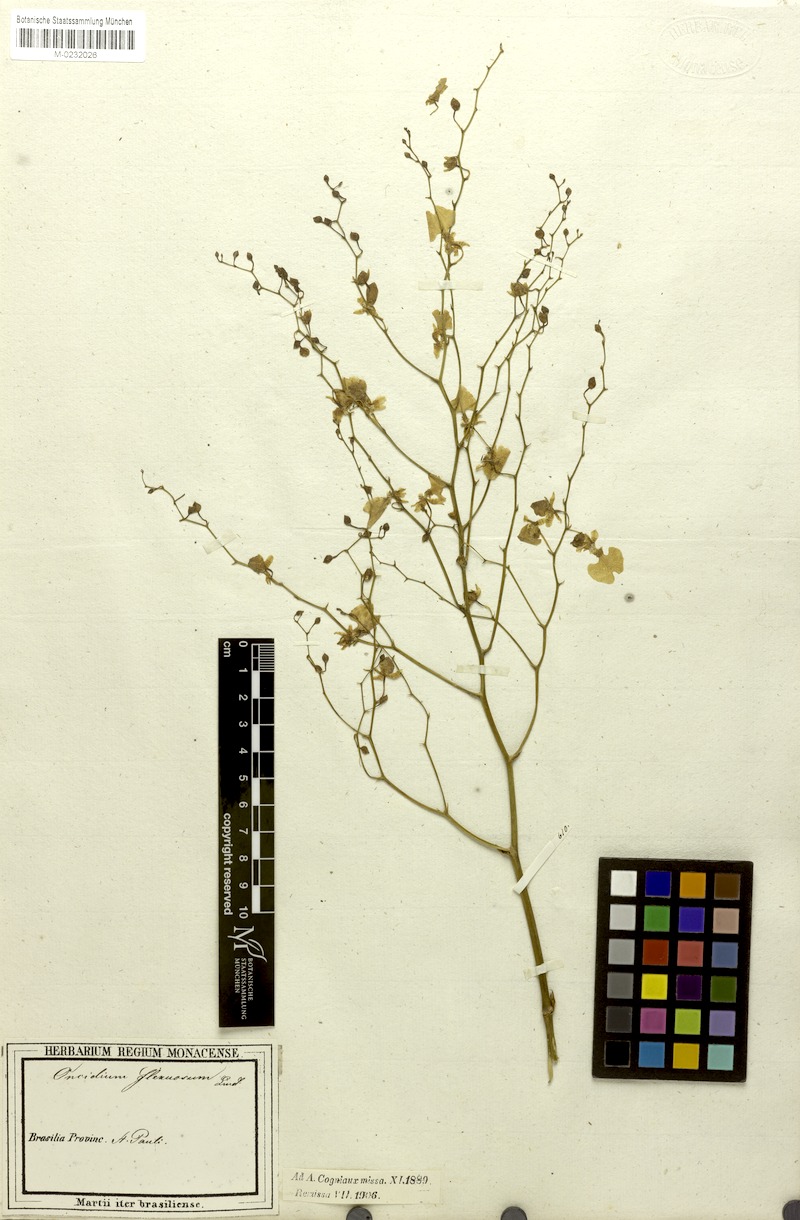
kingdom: Plantae
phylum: Tracheophyta
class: Liliopsida
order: Asparagales
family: Orchidaceae
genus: Cyrtochilum
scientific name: Cyrtochilum cimiciferum
